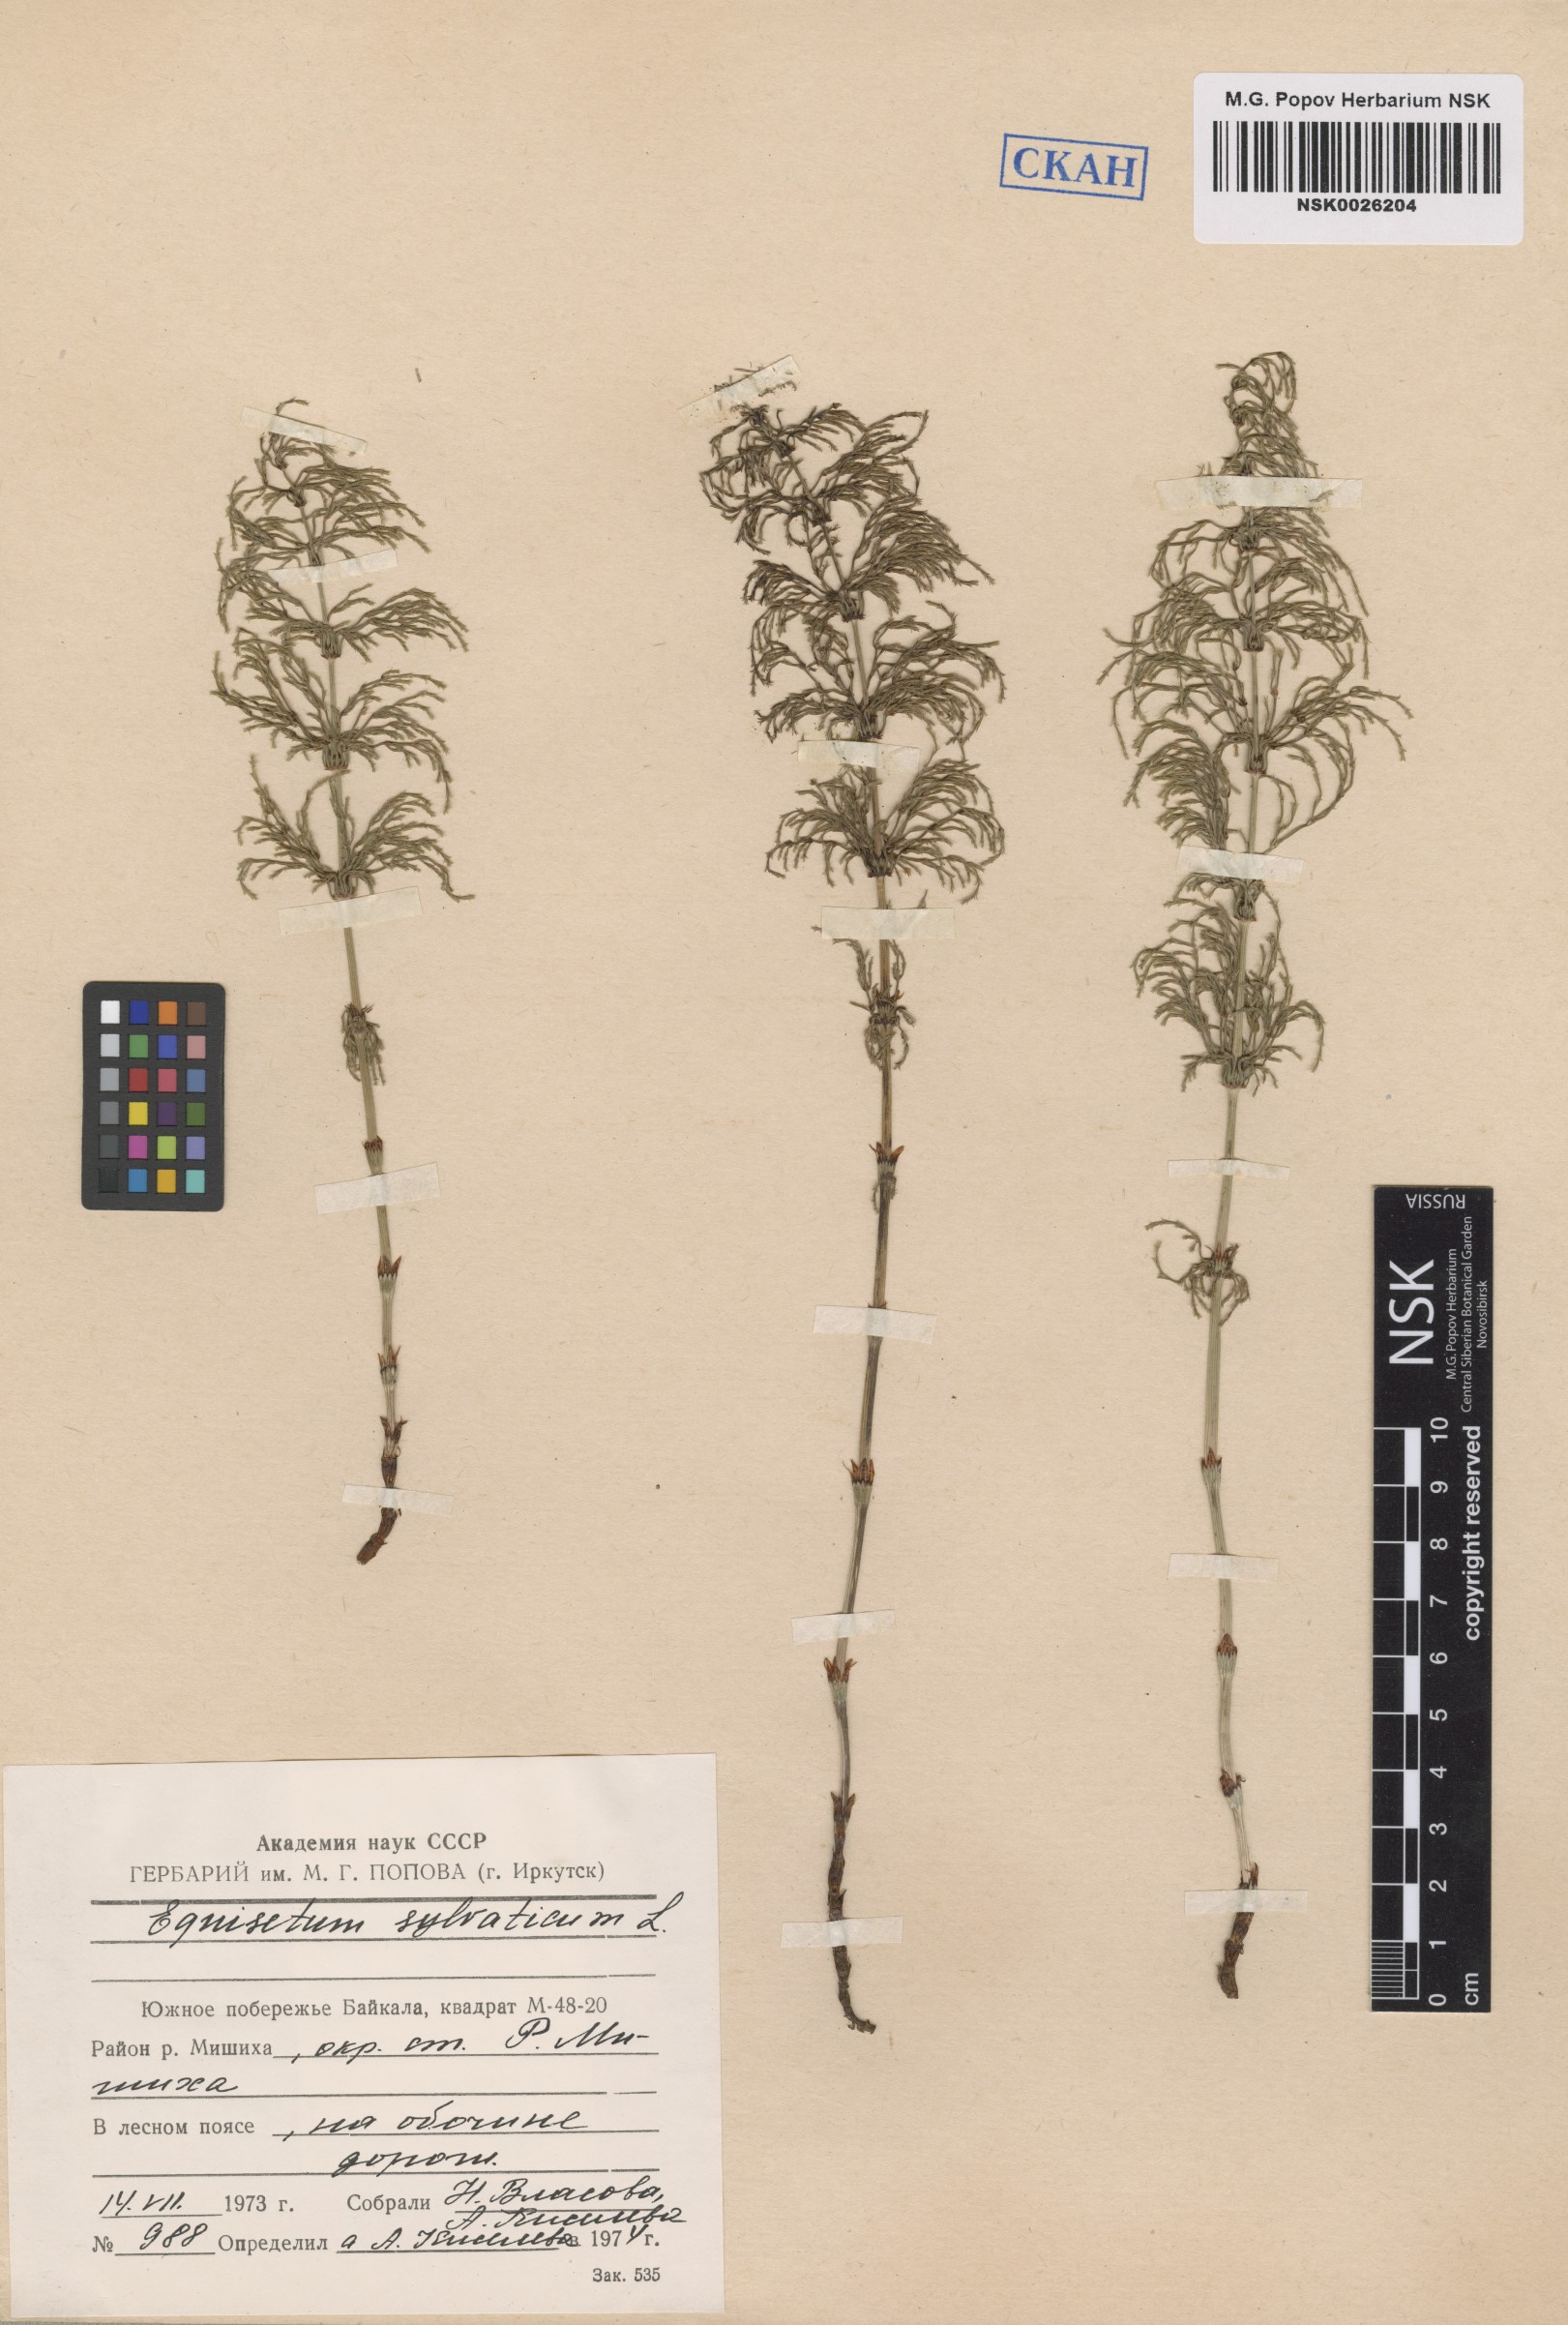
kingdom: Plantae
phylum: Tracheophyta
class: Polypodiopsida
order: Equisetales
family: Equisetaceae
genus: Equisetum
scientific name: Equisetum sylvaticum
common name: Wood horsetail
